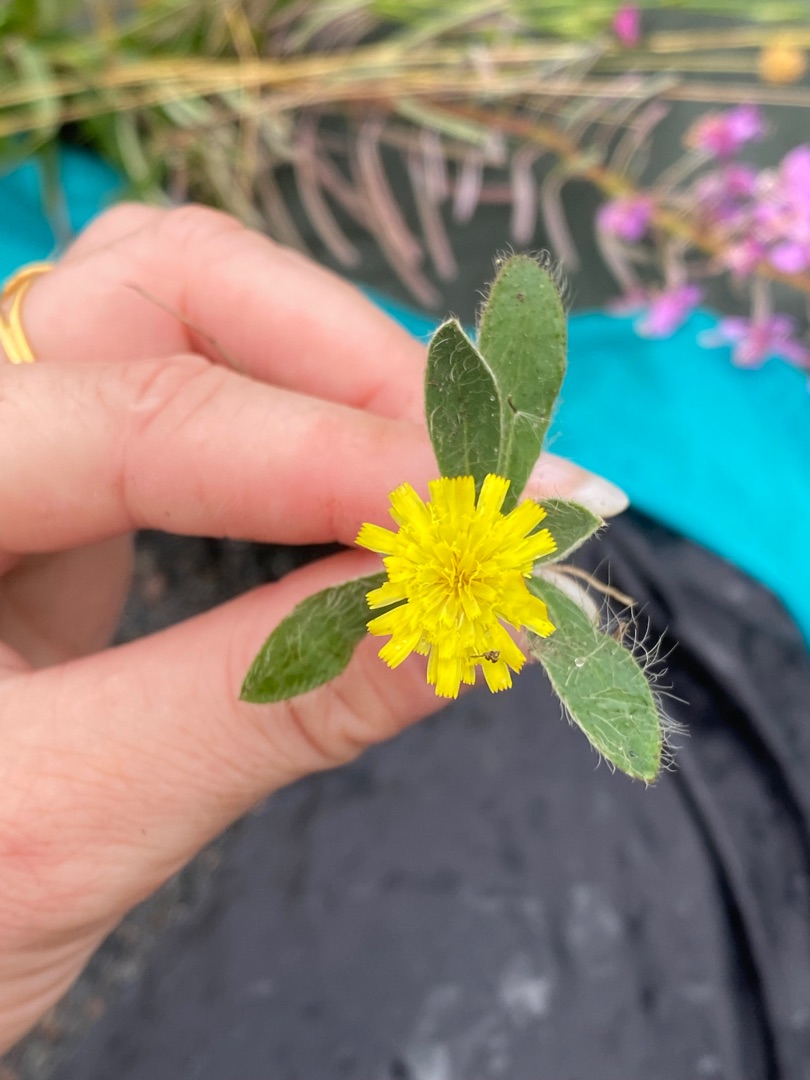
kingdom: Plantae
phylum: Tracheophyta
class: Magnoliopsida
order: Asterales
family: Asteraceae
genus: Pilosella
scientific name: Pilosella officinarum
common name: Håret høgeurt
